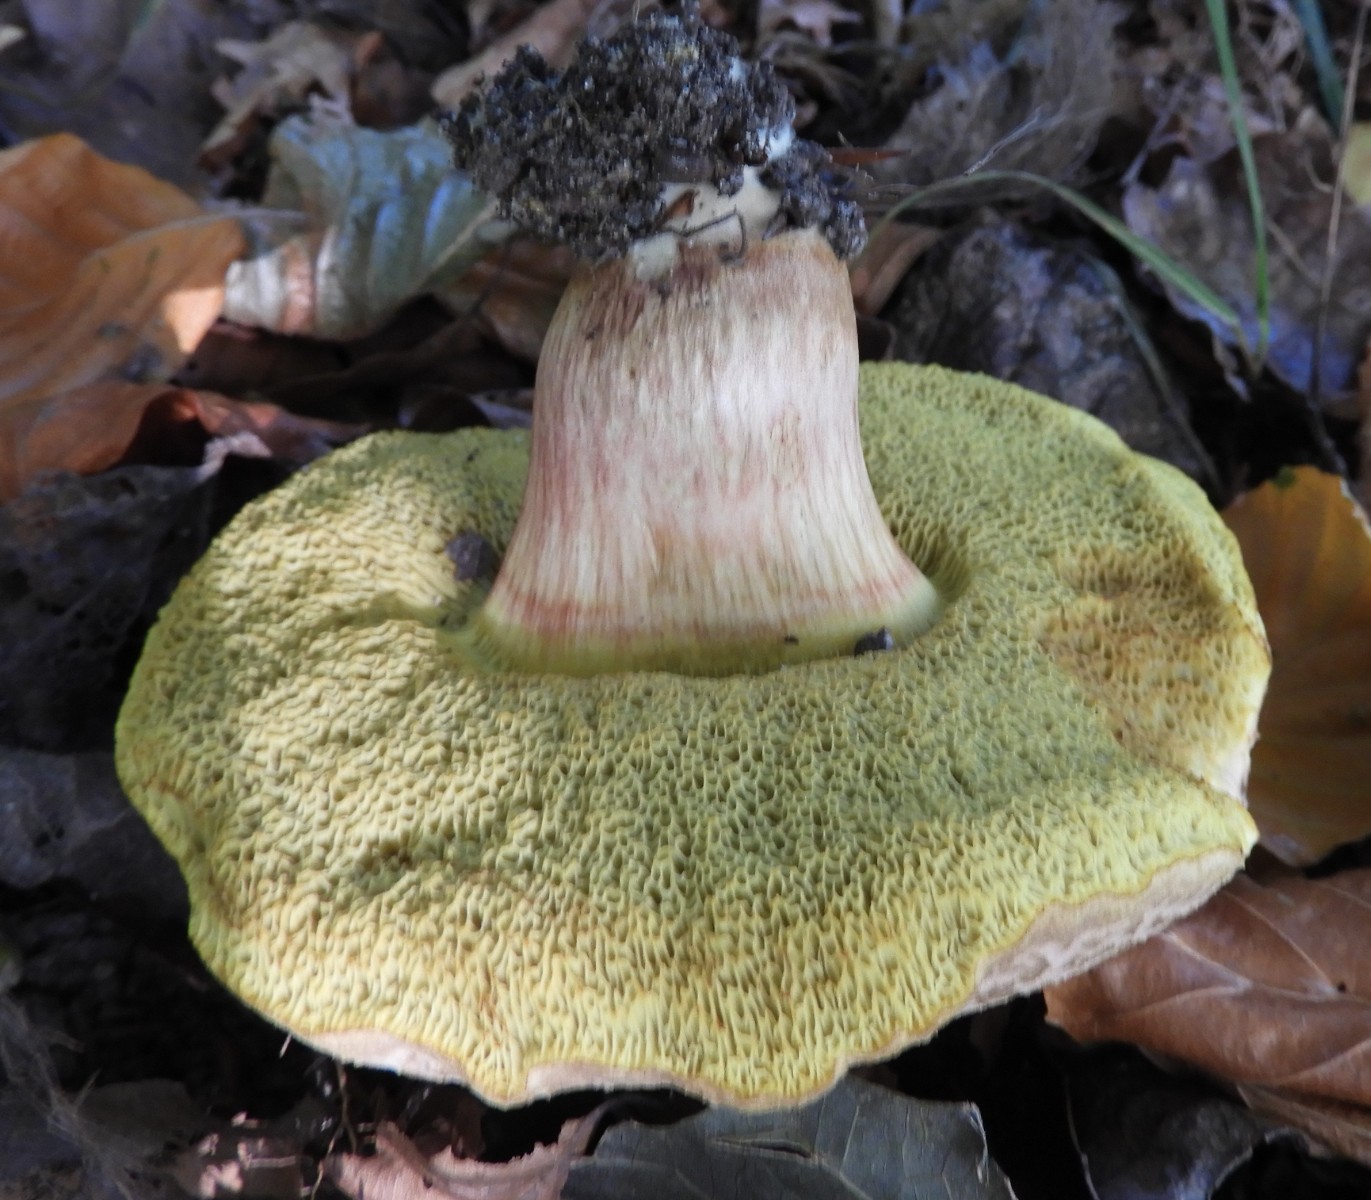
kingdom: Fungi
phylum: Basidiomycota
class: Agaricomycetes
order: Boletales
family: Boletaceae
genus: Xerocomellus
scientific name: Xerocomellus porosporus
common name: hvidsprukken rørhat
